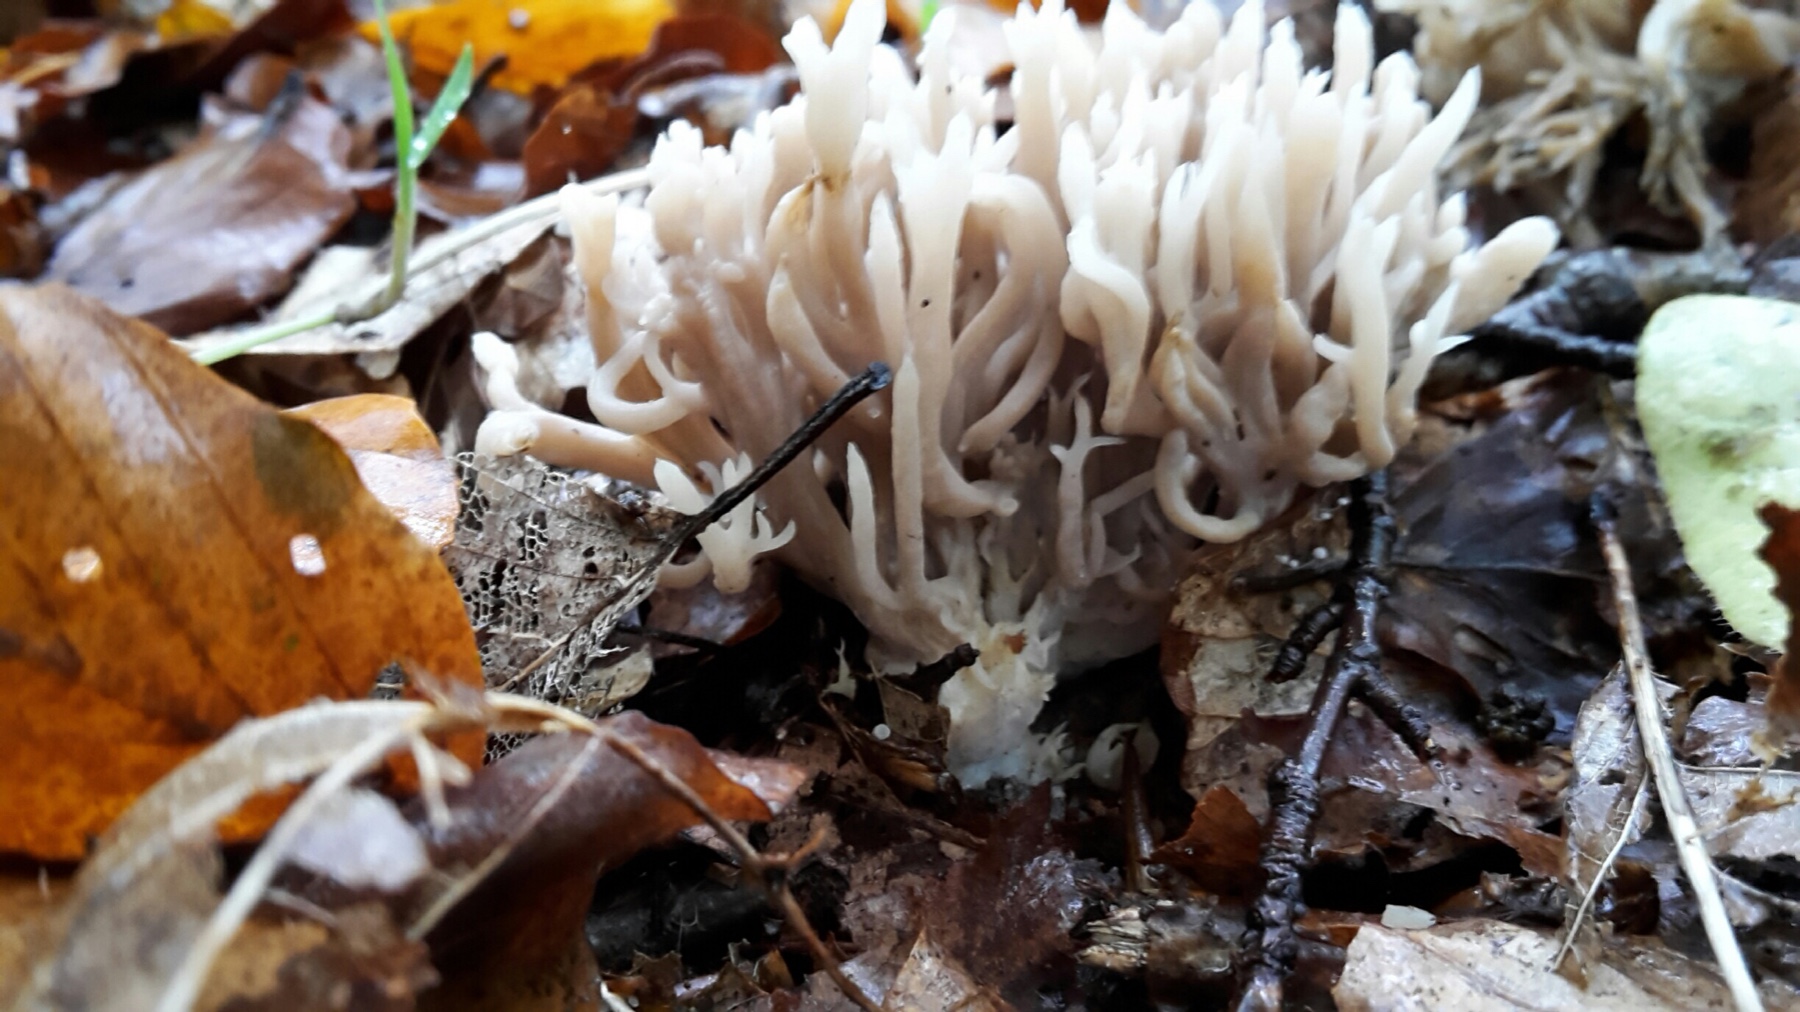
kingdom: Fungi
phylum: Basidiomycota
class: Agaricomycetes
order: Cantharellales
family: Hydnaceae
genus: Clavulina
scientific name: Clavulina
